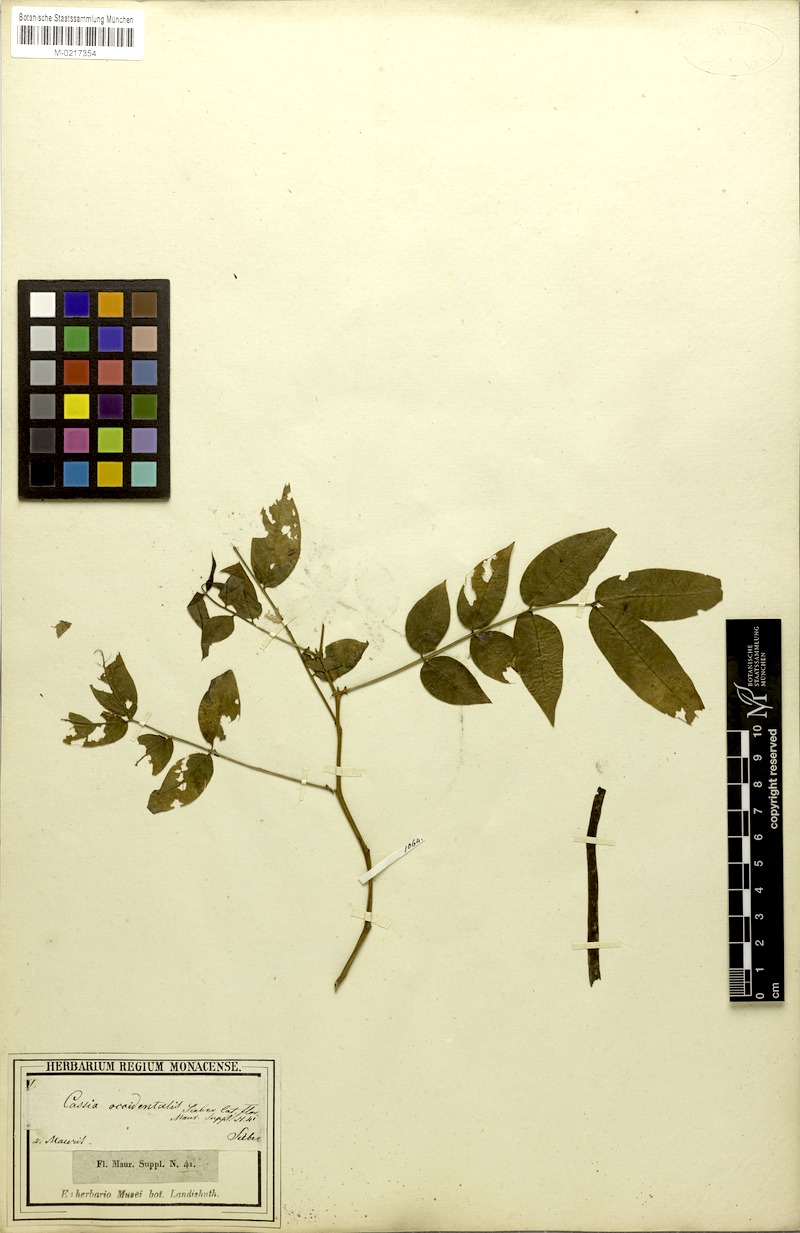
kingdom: Plantae
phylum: Tracheophyta
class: Magnoliopsida
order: Fabales
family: Fabaceae
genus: Senna
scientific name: Senna occidentalis
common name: Septicweed
